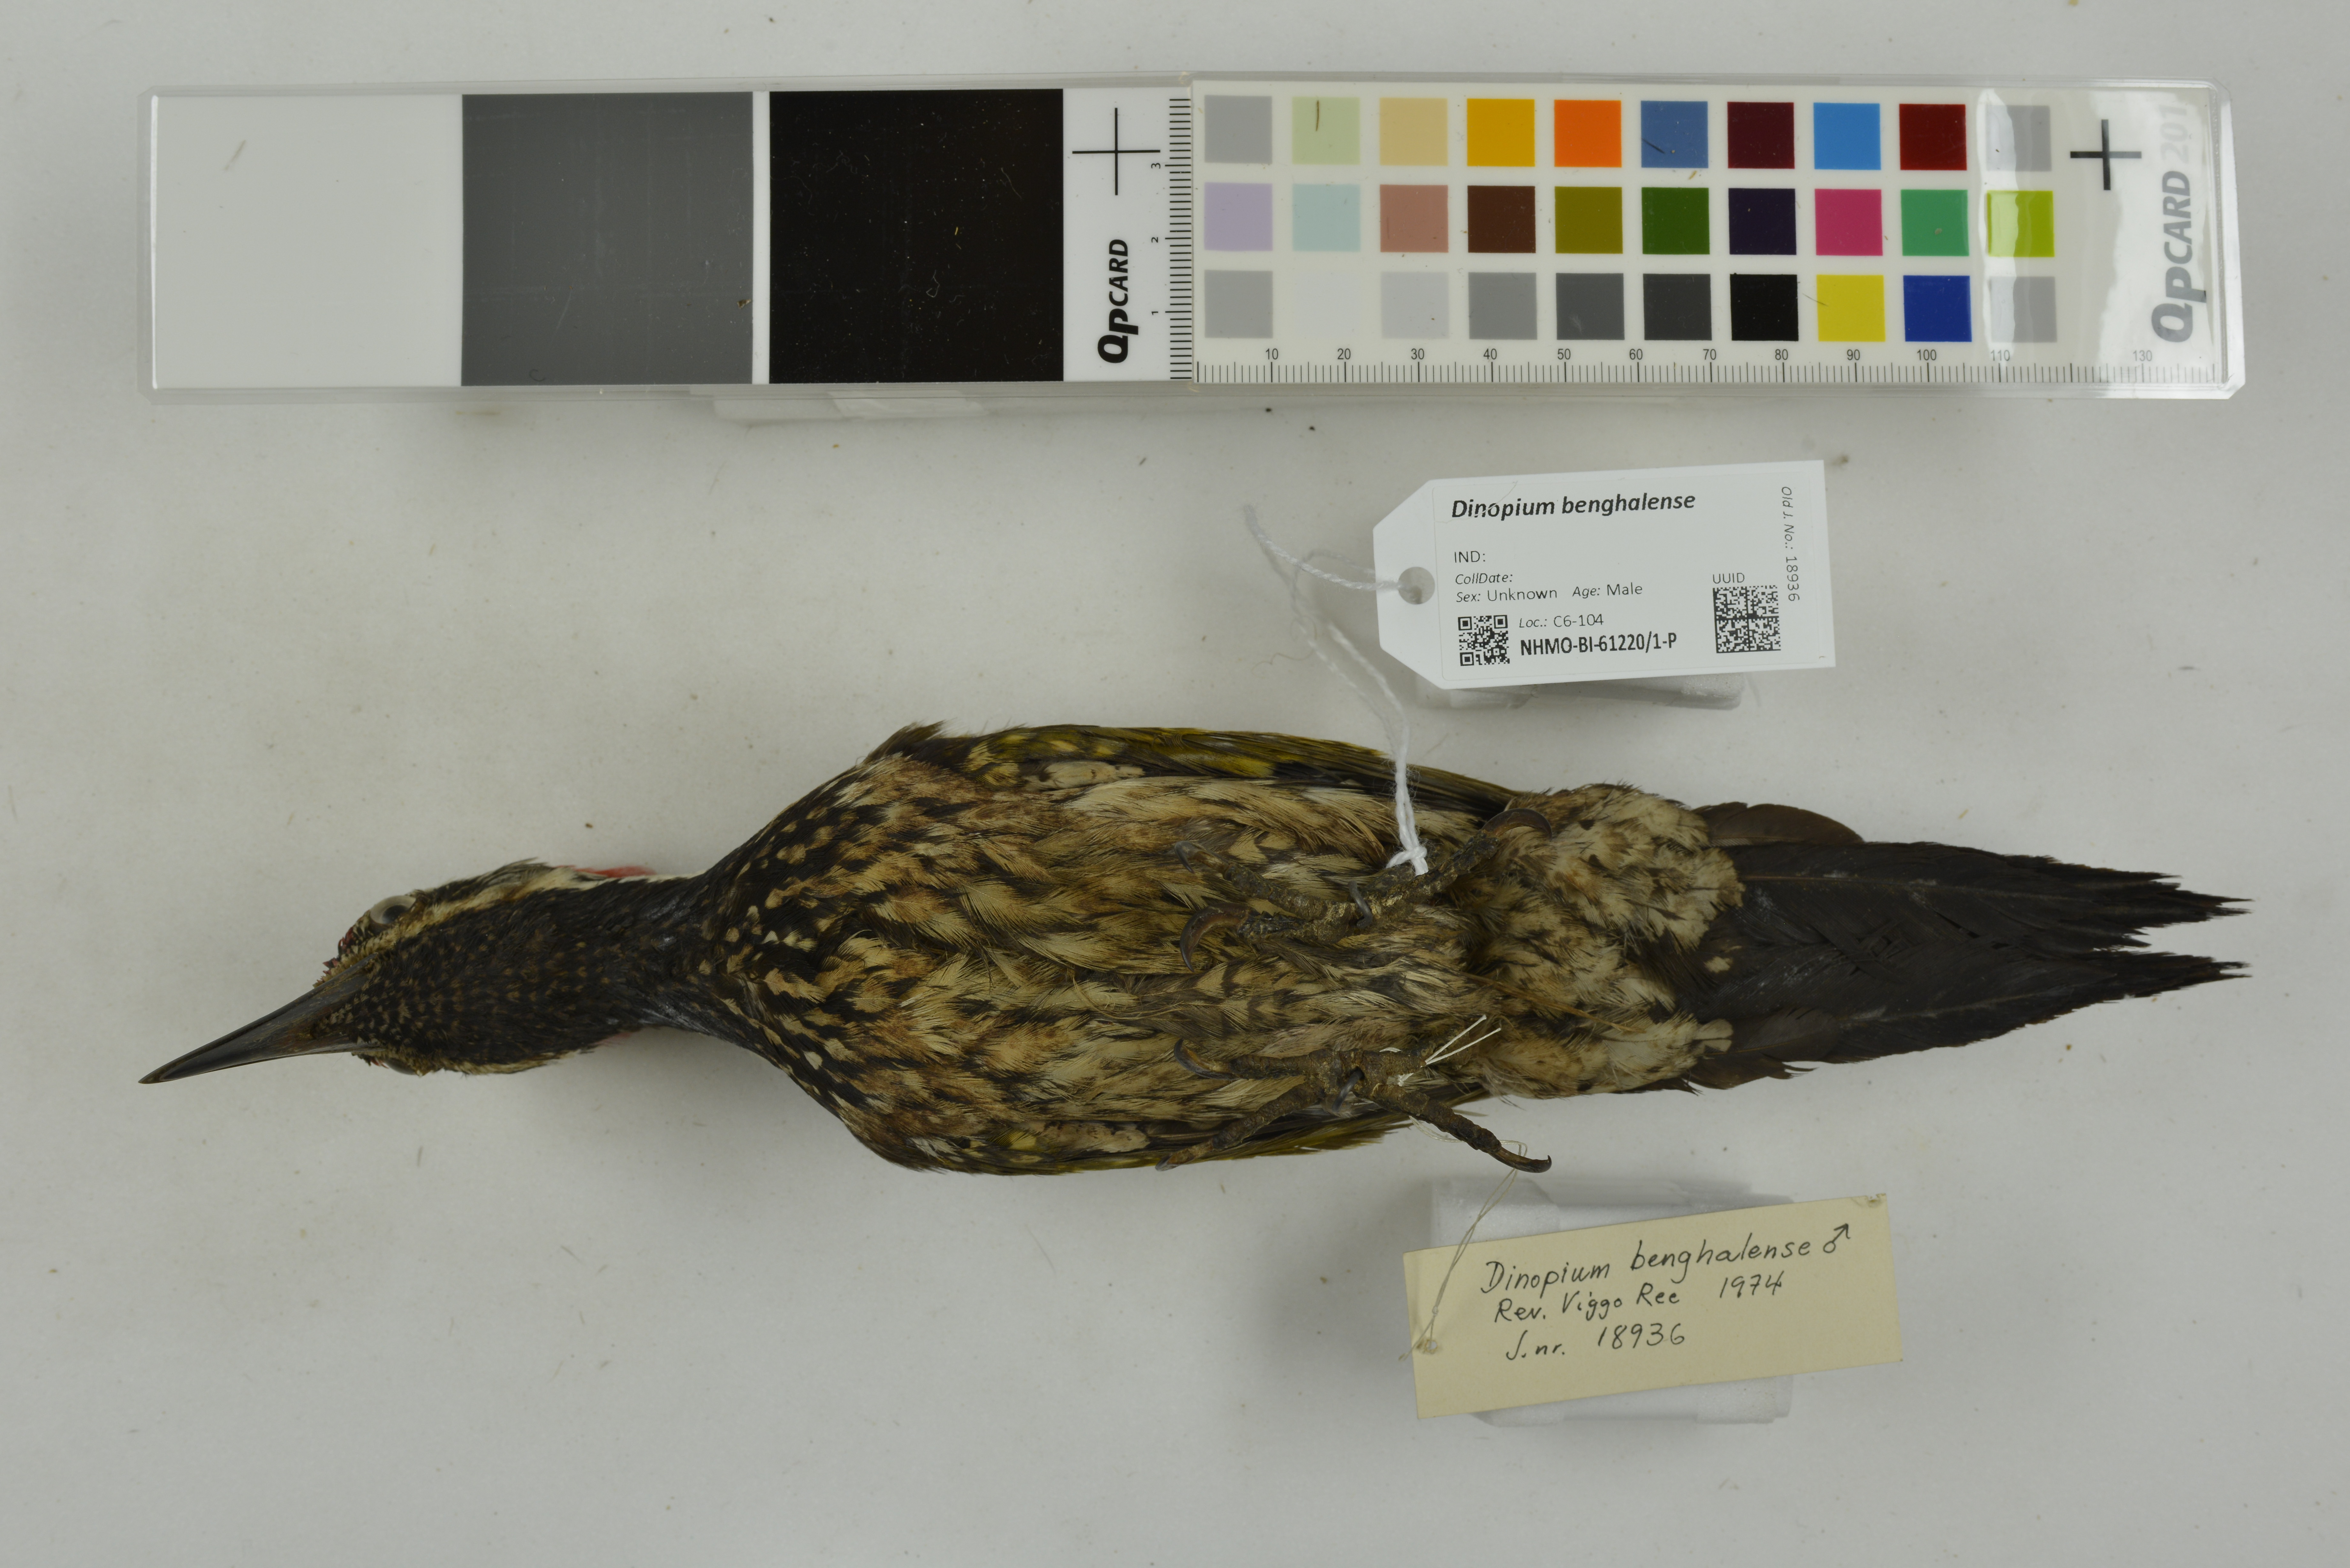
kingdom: Animalia
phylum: Chordata
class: Aves
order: Piciformes
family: Picidae
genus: Dinopium
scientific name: Dinopium benghalense
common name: Black-rumped flameback
